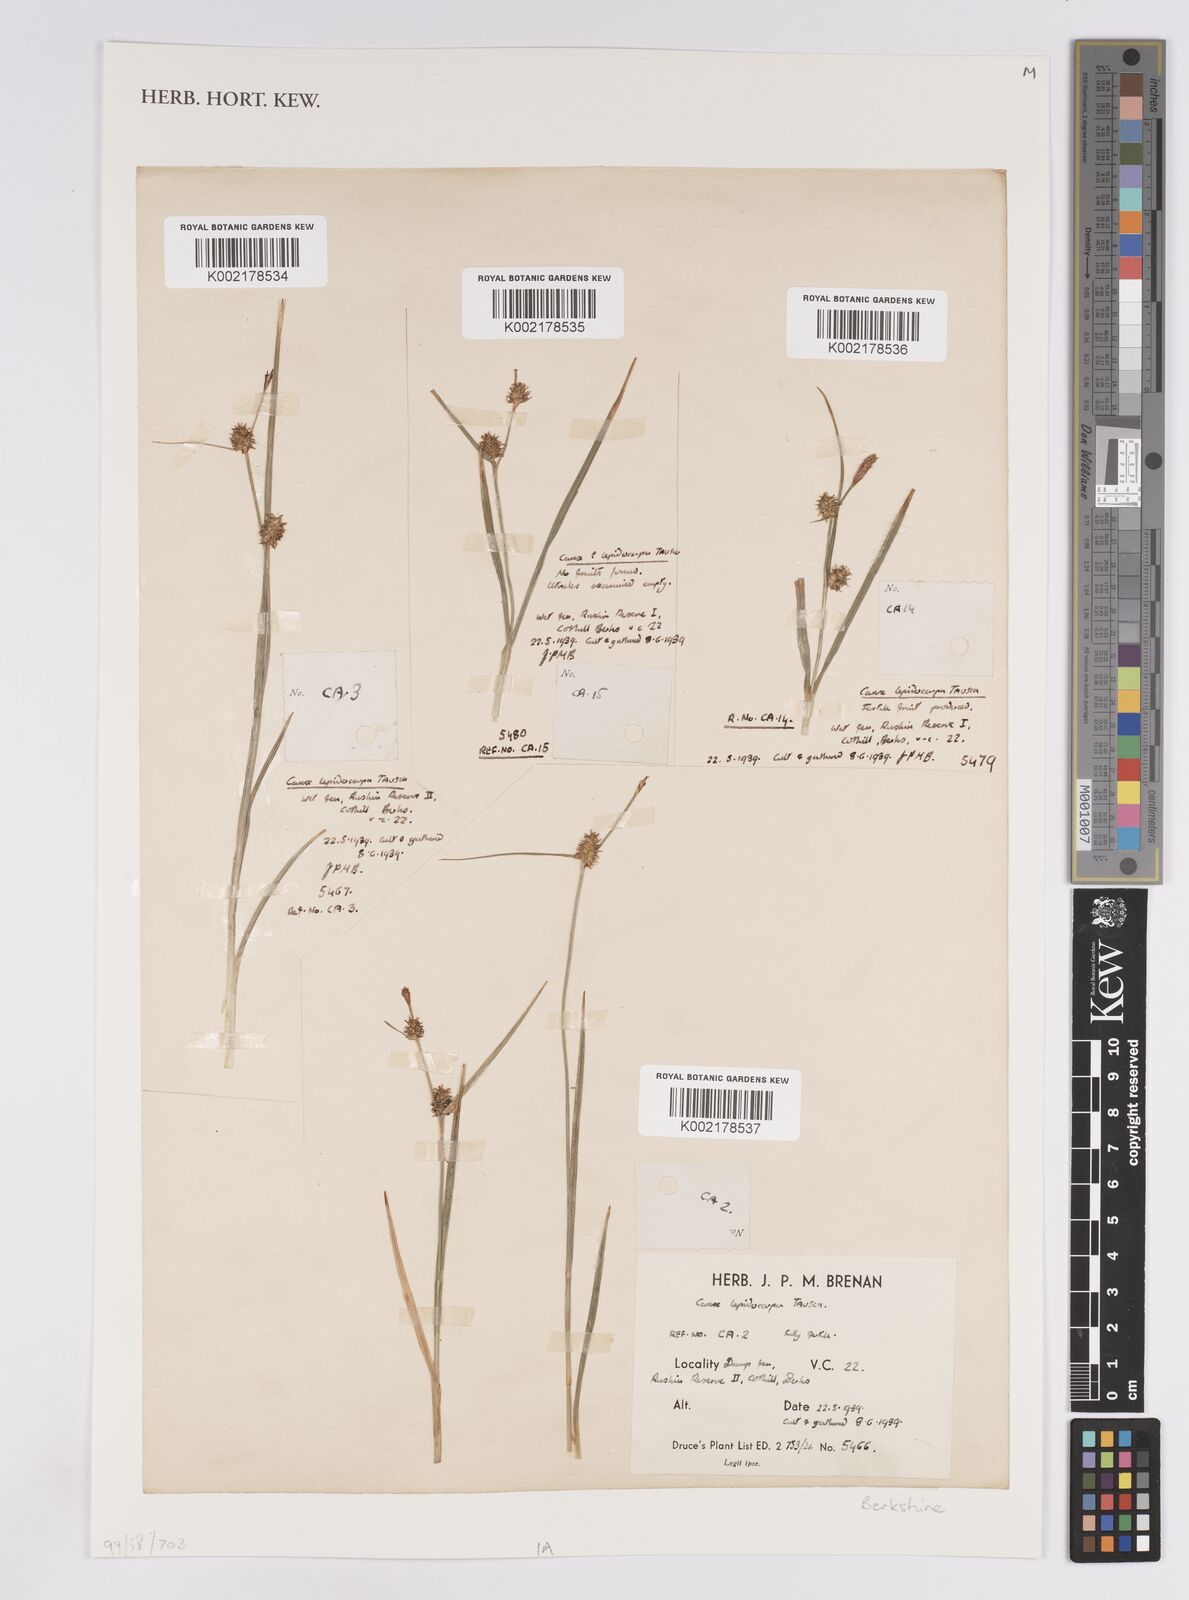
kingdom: Plantae
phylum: Tracheophyta
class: Liliopsida
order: Poales
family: Cyperaceae
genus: Carex
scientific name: Carex lepidocarpa
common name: Long-stalked yellow-sedge
